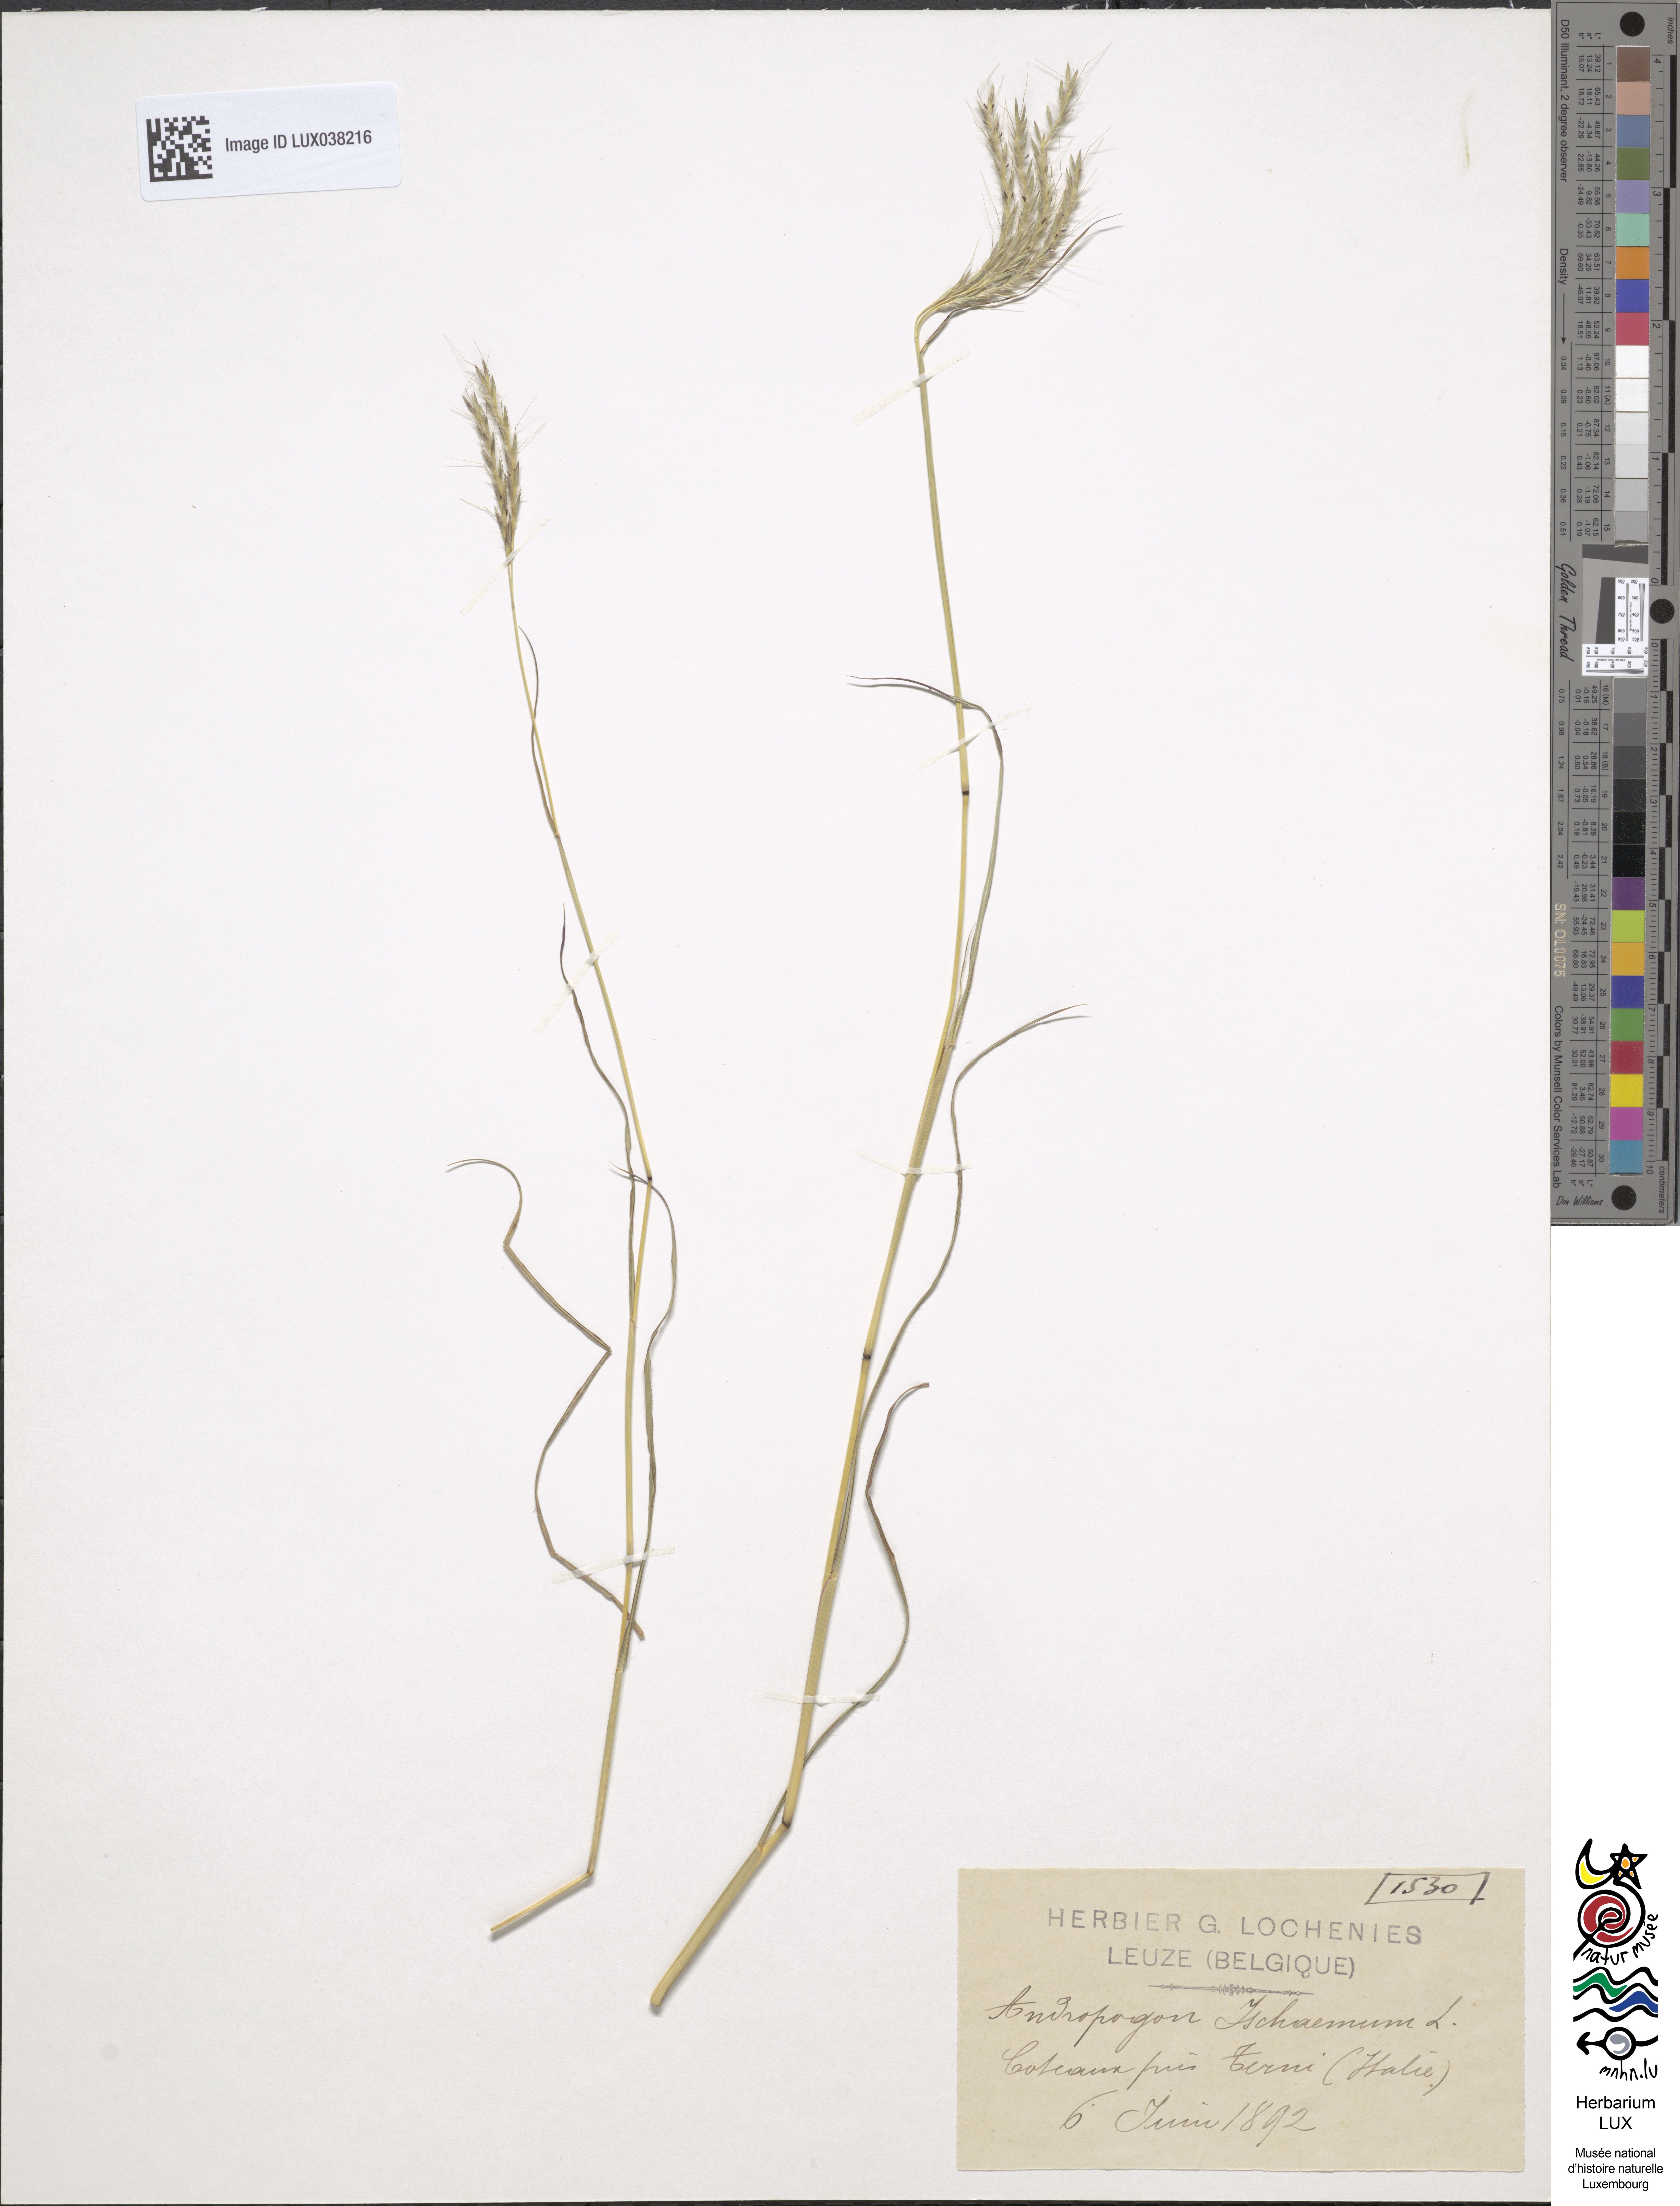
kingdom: Plantae
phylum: Tracheophyta
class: Liliopsida
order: Poales
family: Poaceae
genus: Bothriochloa
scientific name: Bothriochloa ischaemum
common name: Yellow bluestem
